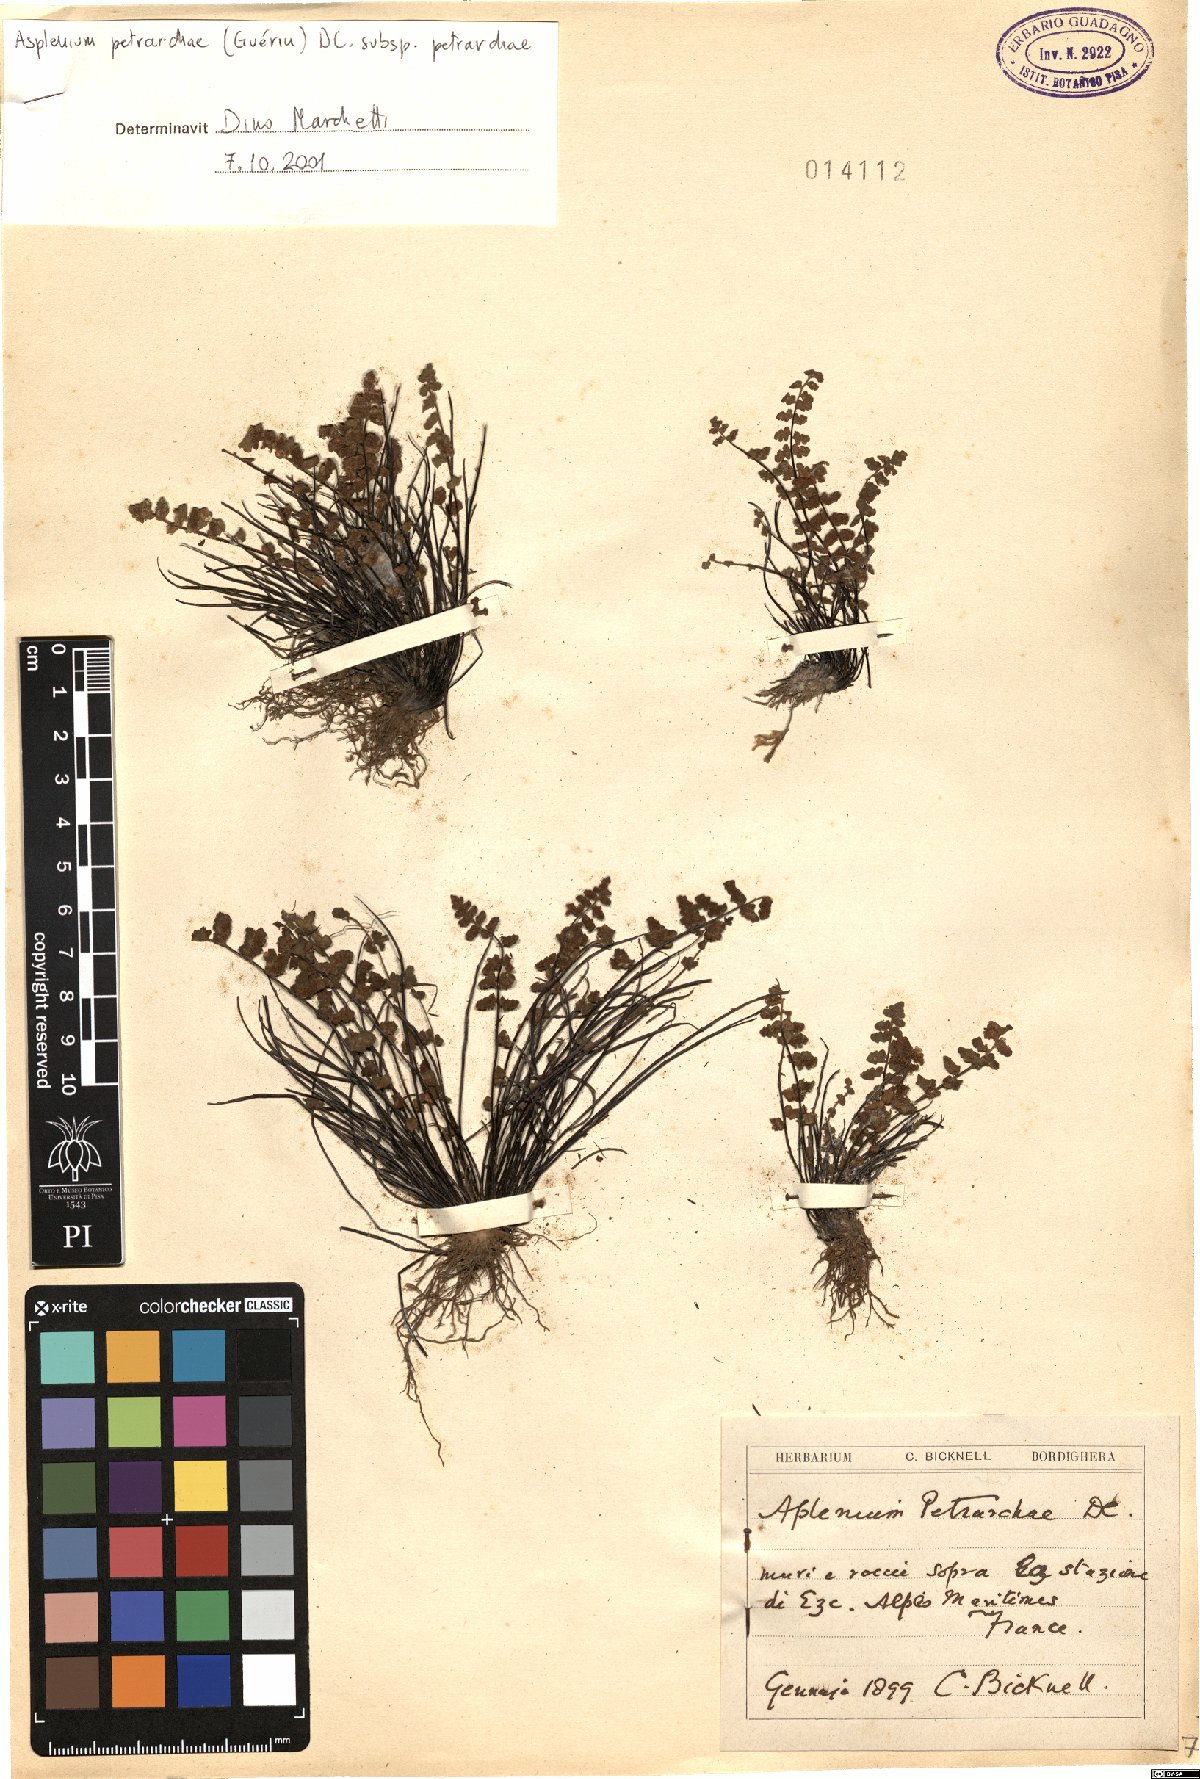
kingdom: Plantae
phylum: Tracheophyta
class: Polypodiopsida
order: Polypodiales
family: Aspleniaceae
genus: Asplenium
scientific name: Asplenium petrarchae
